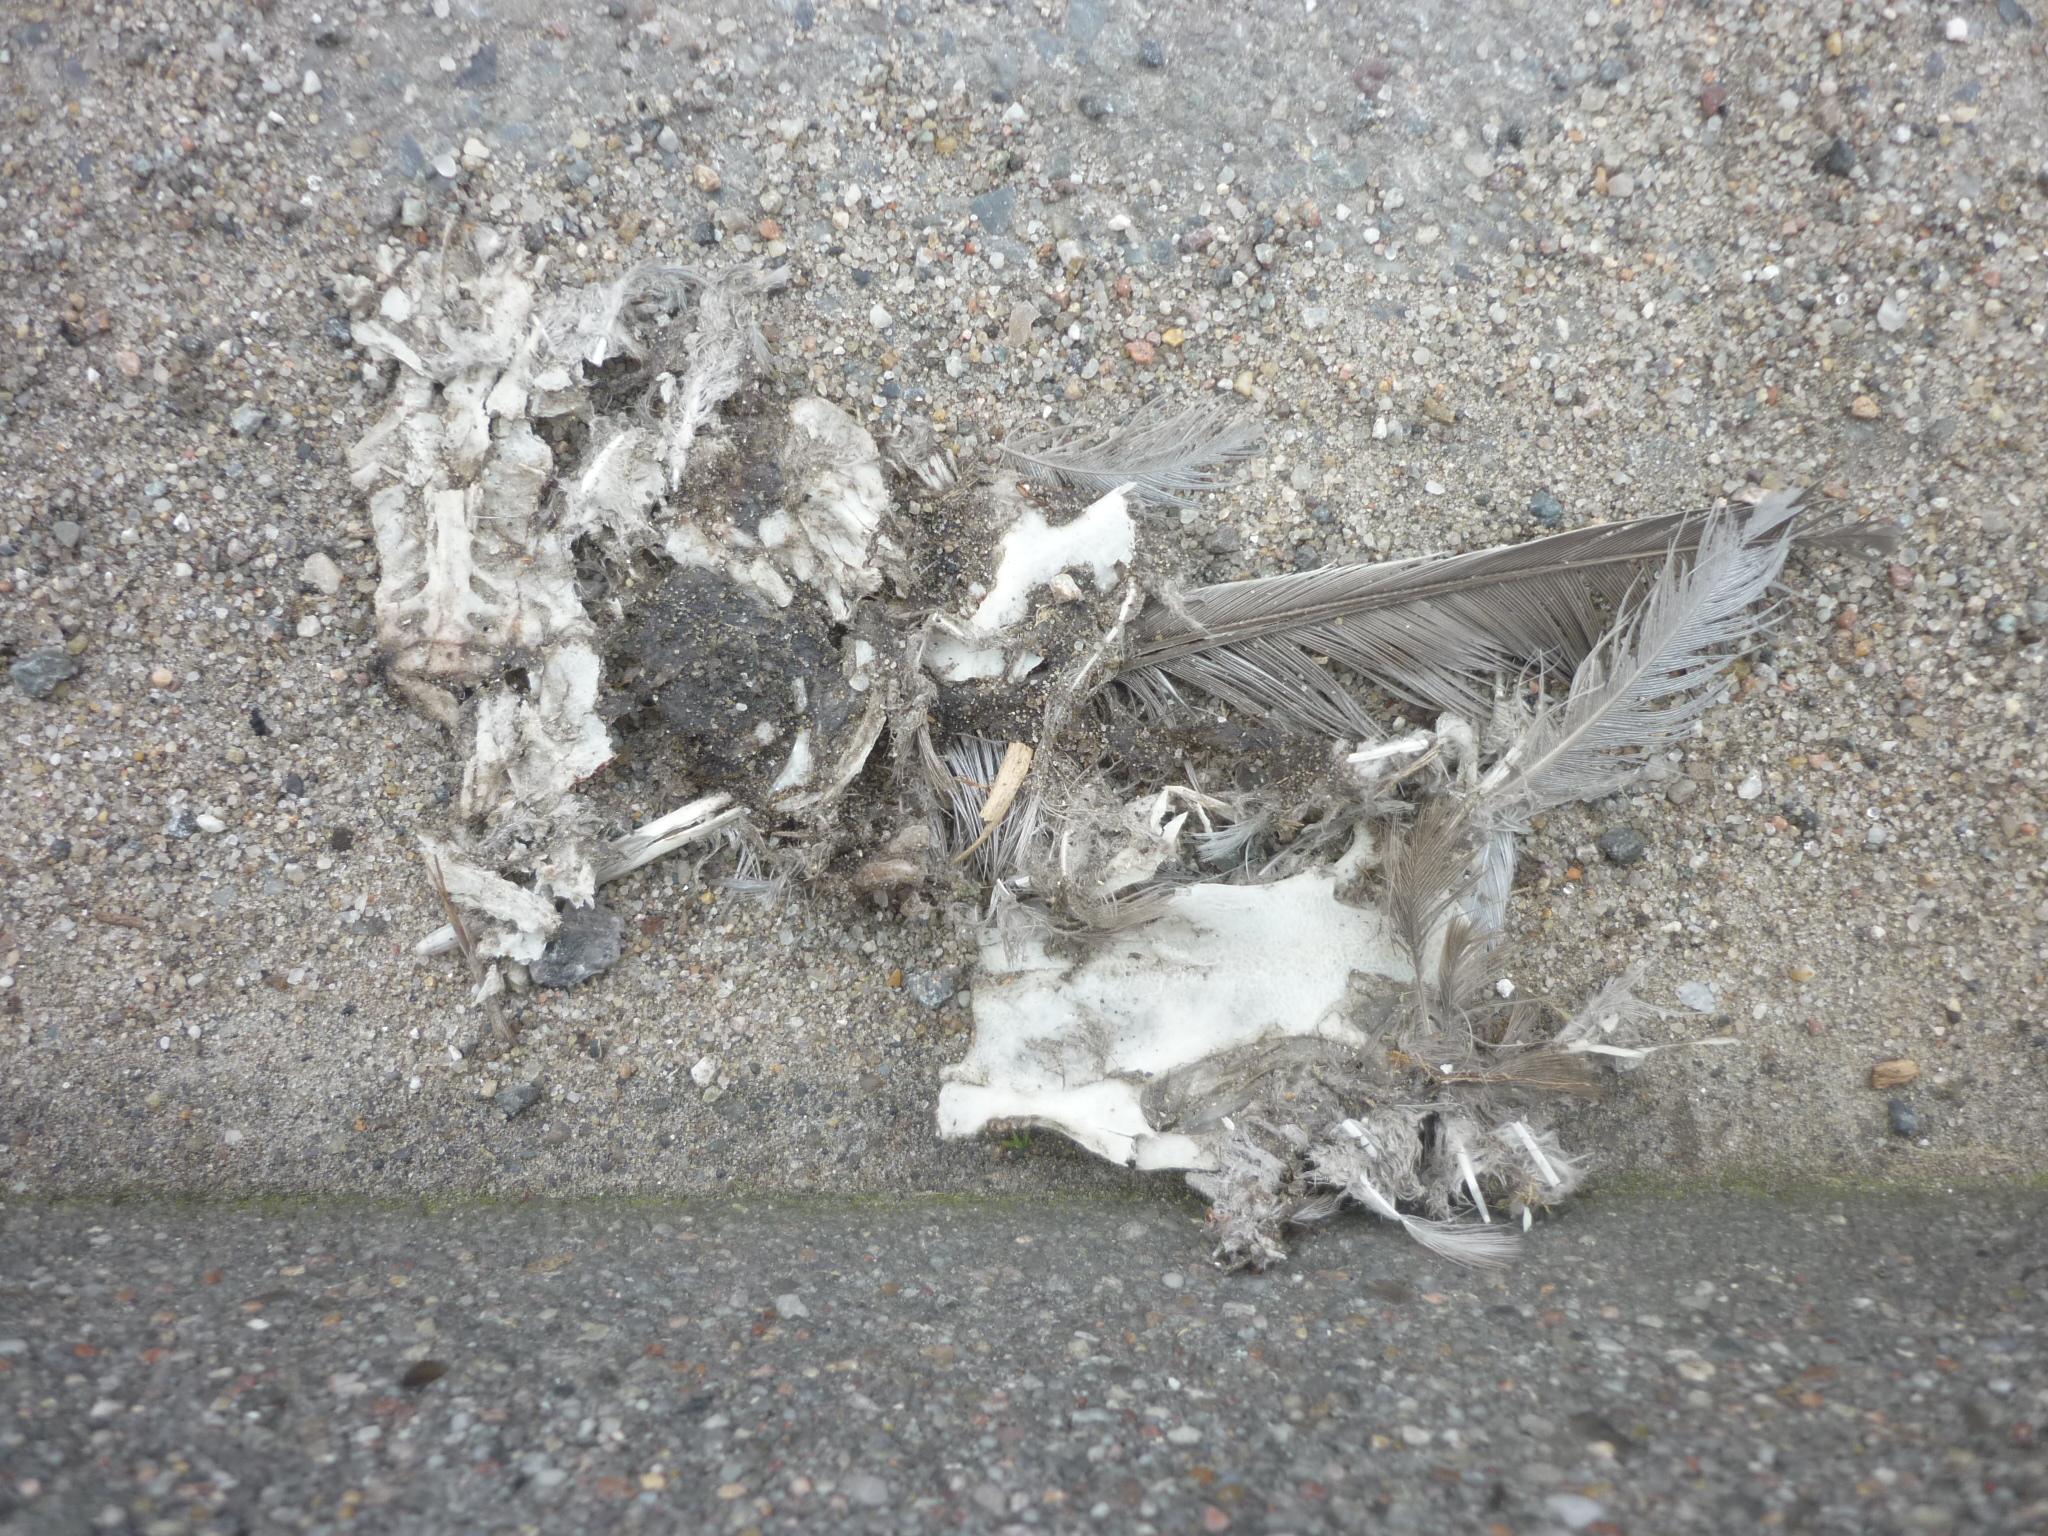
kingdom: Animalia
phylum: Chordata
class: Aves
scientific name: Aves
